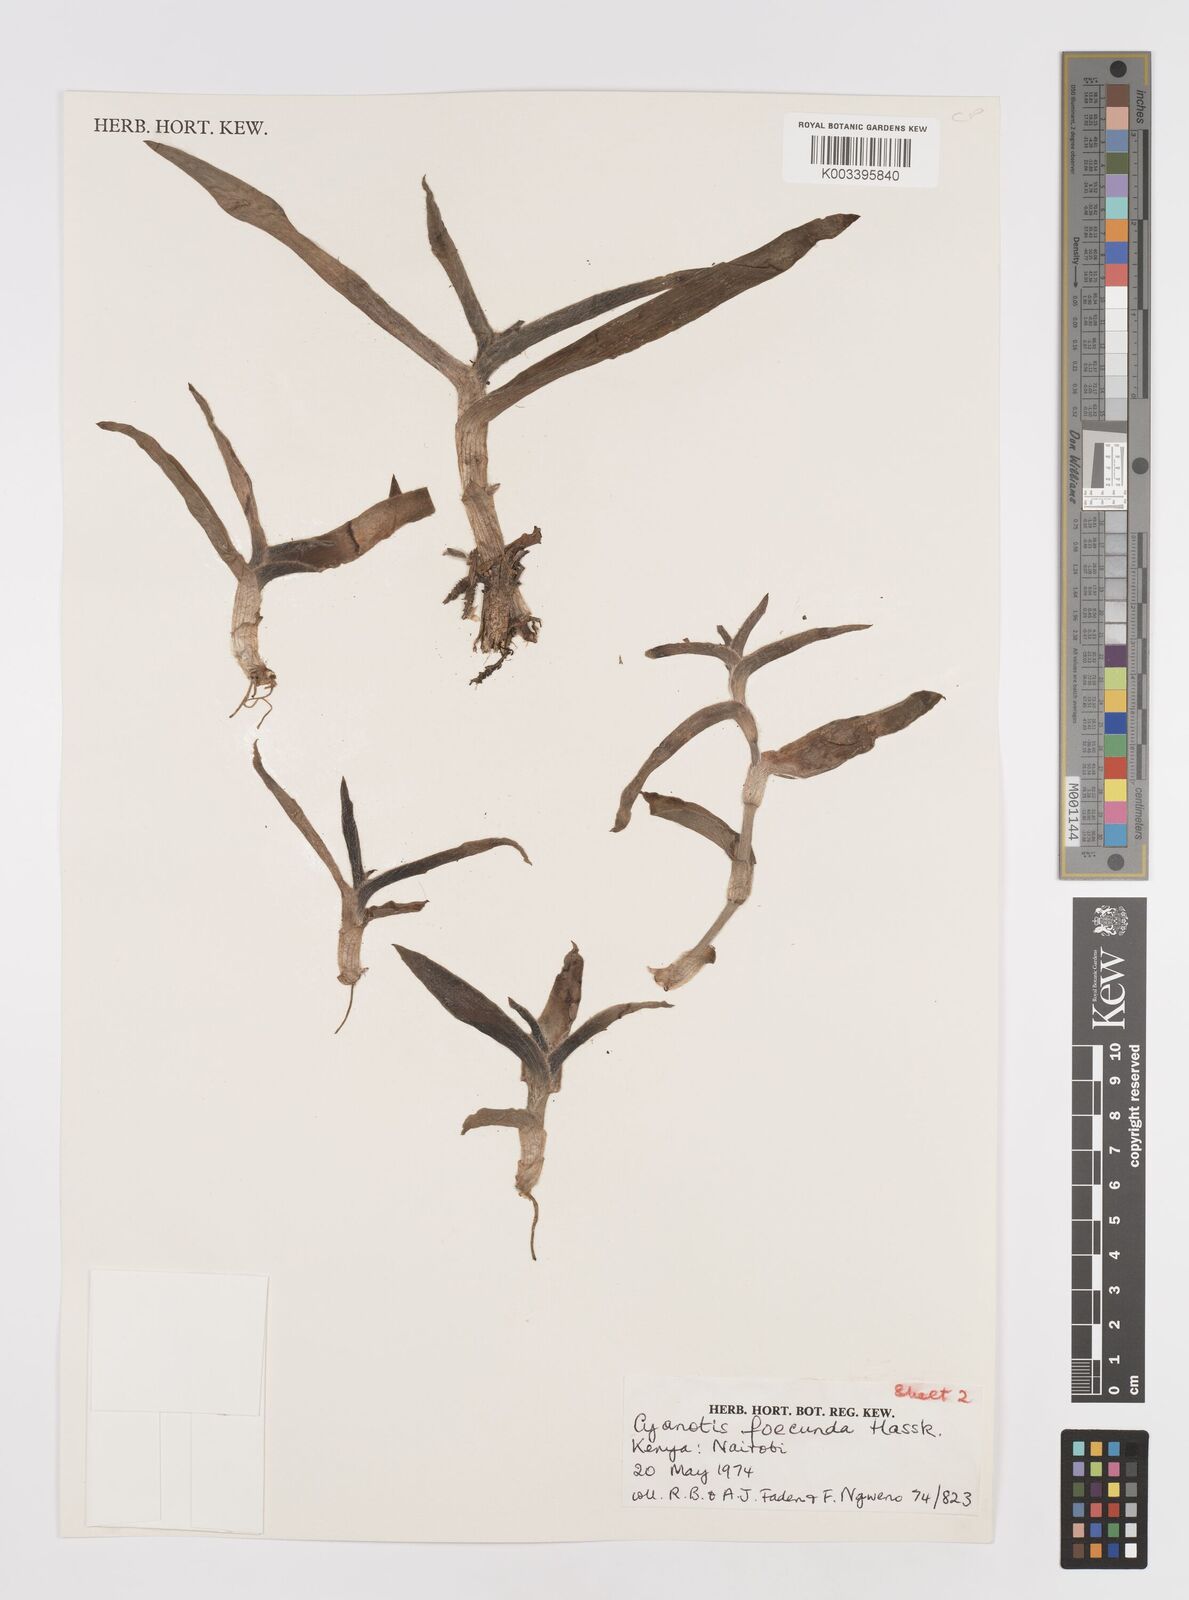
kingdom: Plantae
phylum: Tracheophyta
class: Liliopsida
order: Commelinales
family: Commelinaceae
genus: Cyanotis
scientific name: Cyanotis foecunda
